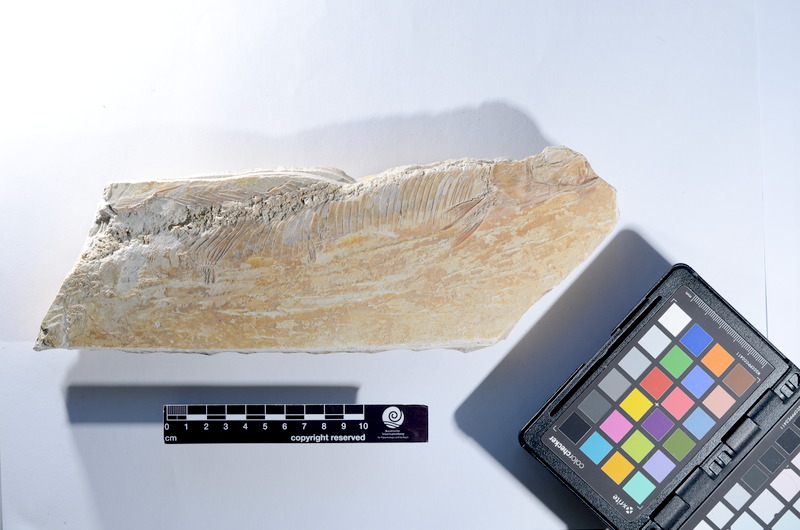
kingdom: Animalia
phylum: Chordata
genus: Pachythrissops
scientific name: Pachythrissops propterus
